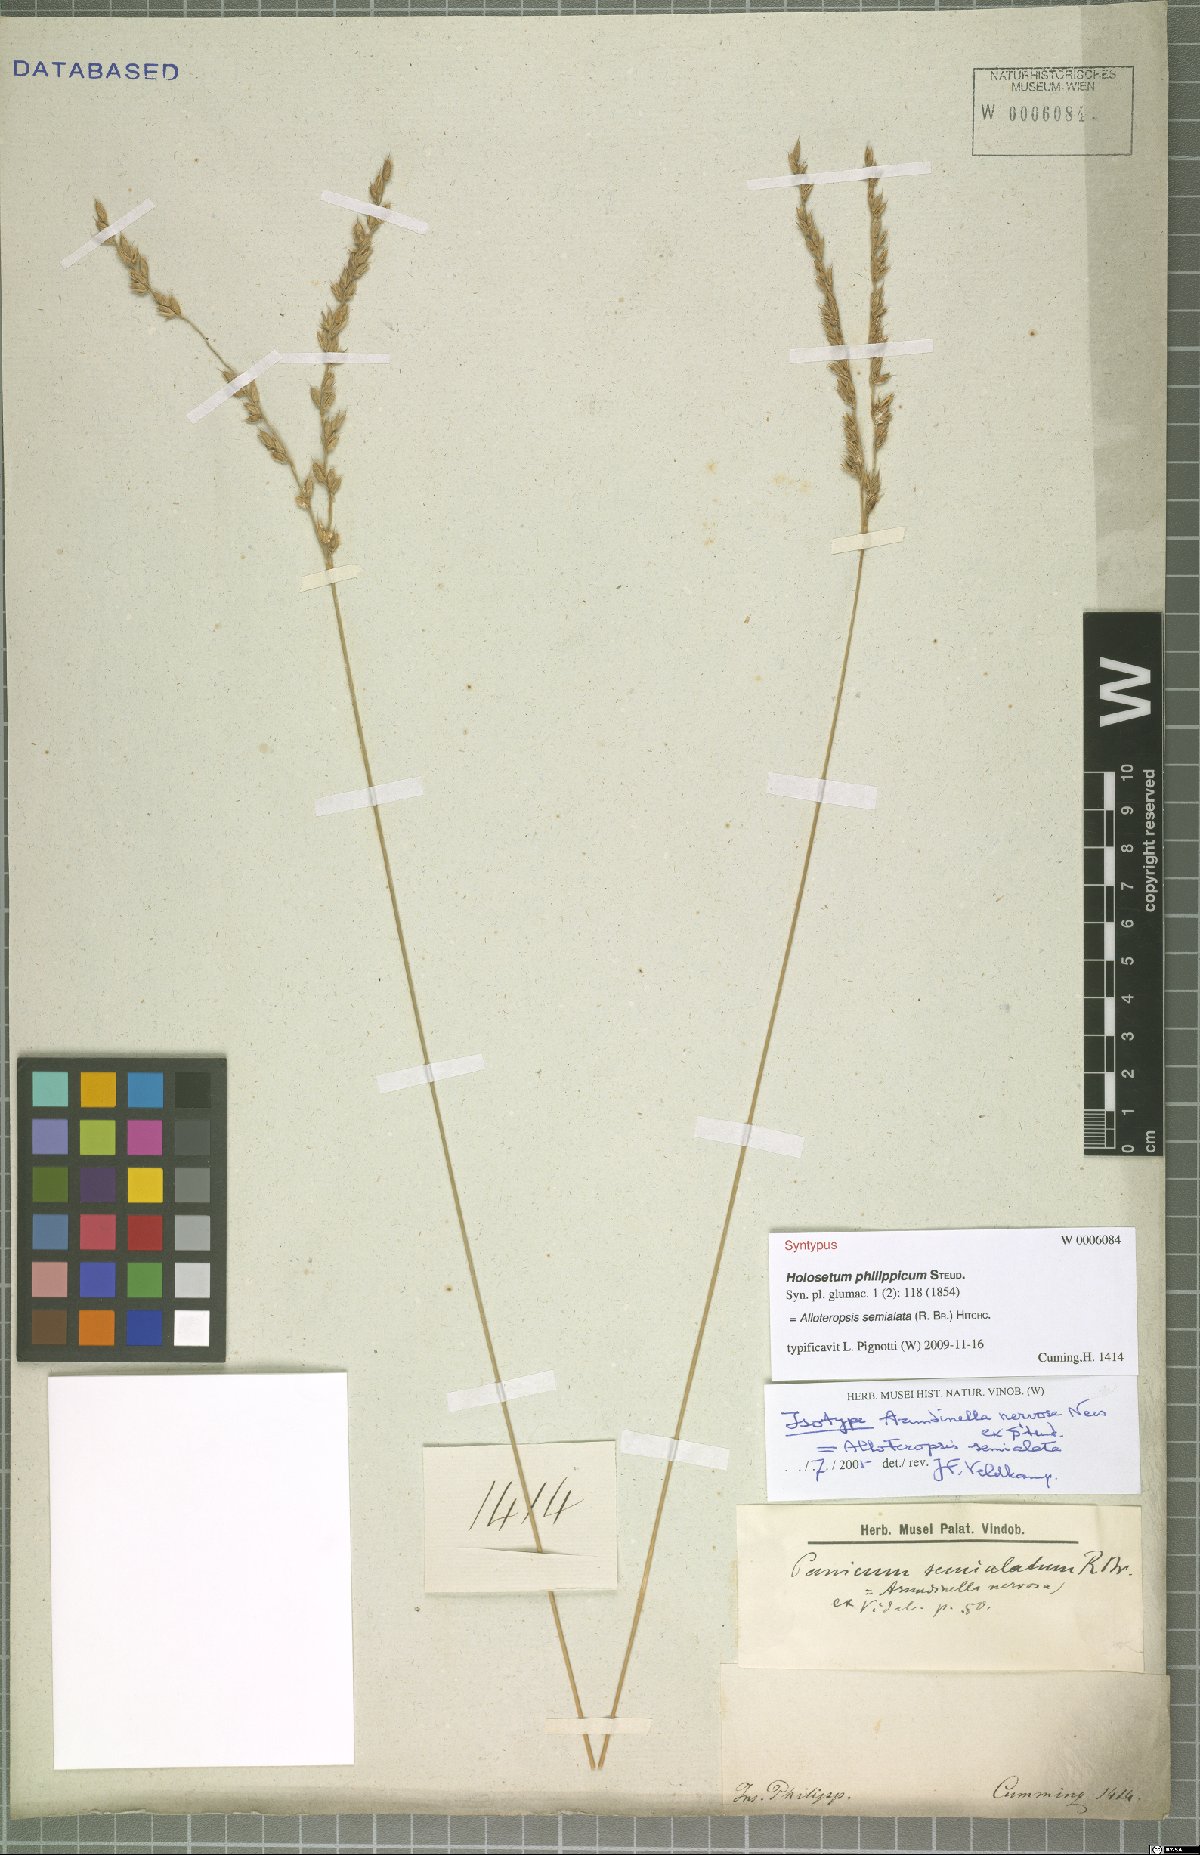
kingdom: Plantae
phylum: Tracheophyta
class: Liliopsida
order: Poales
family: Poaceae
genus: Alloteropsis
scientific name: Alloteropsis semialata
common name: Cockatoo grass
